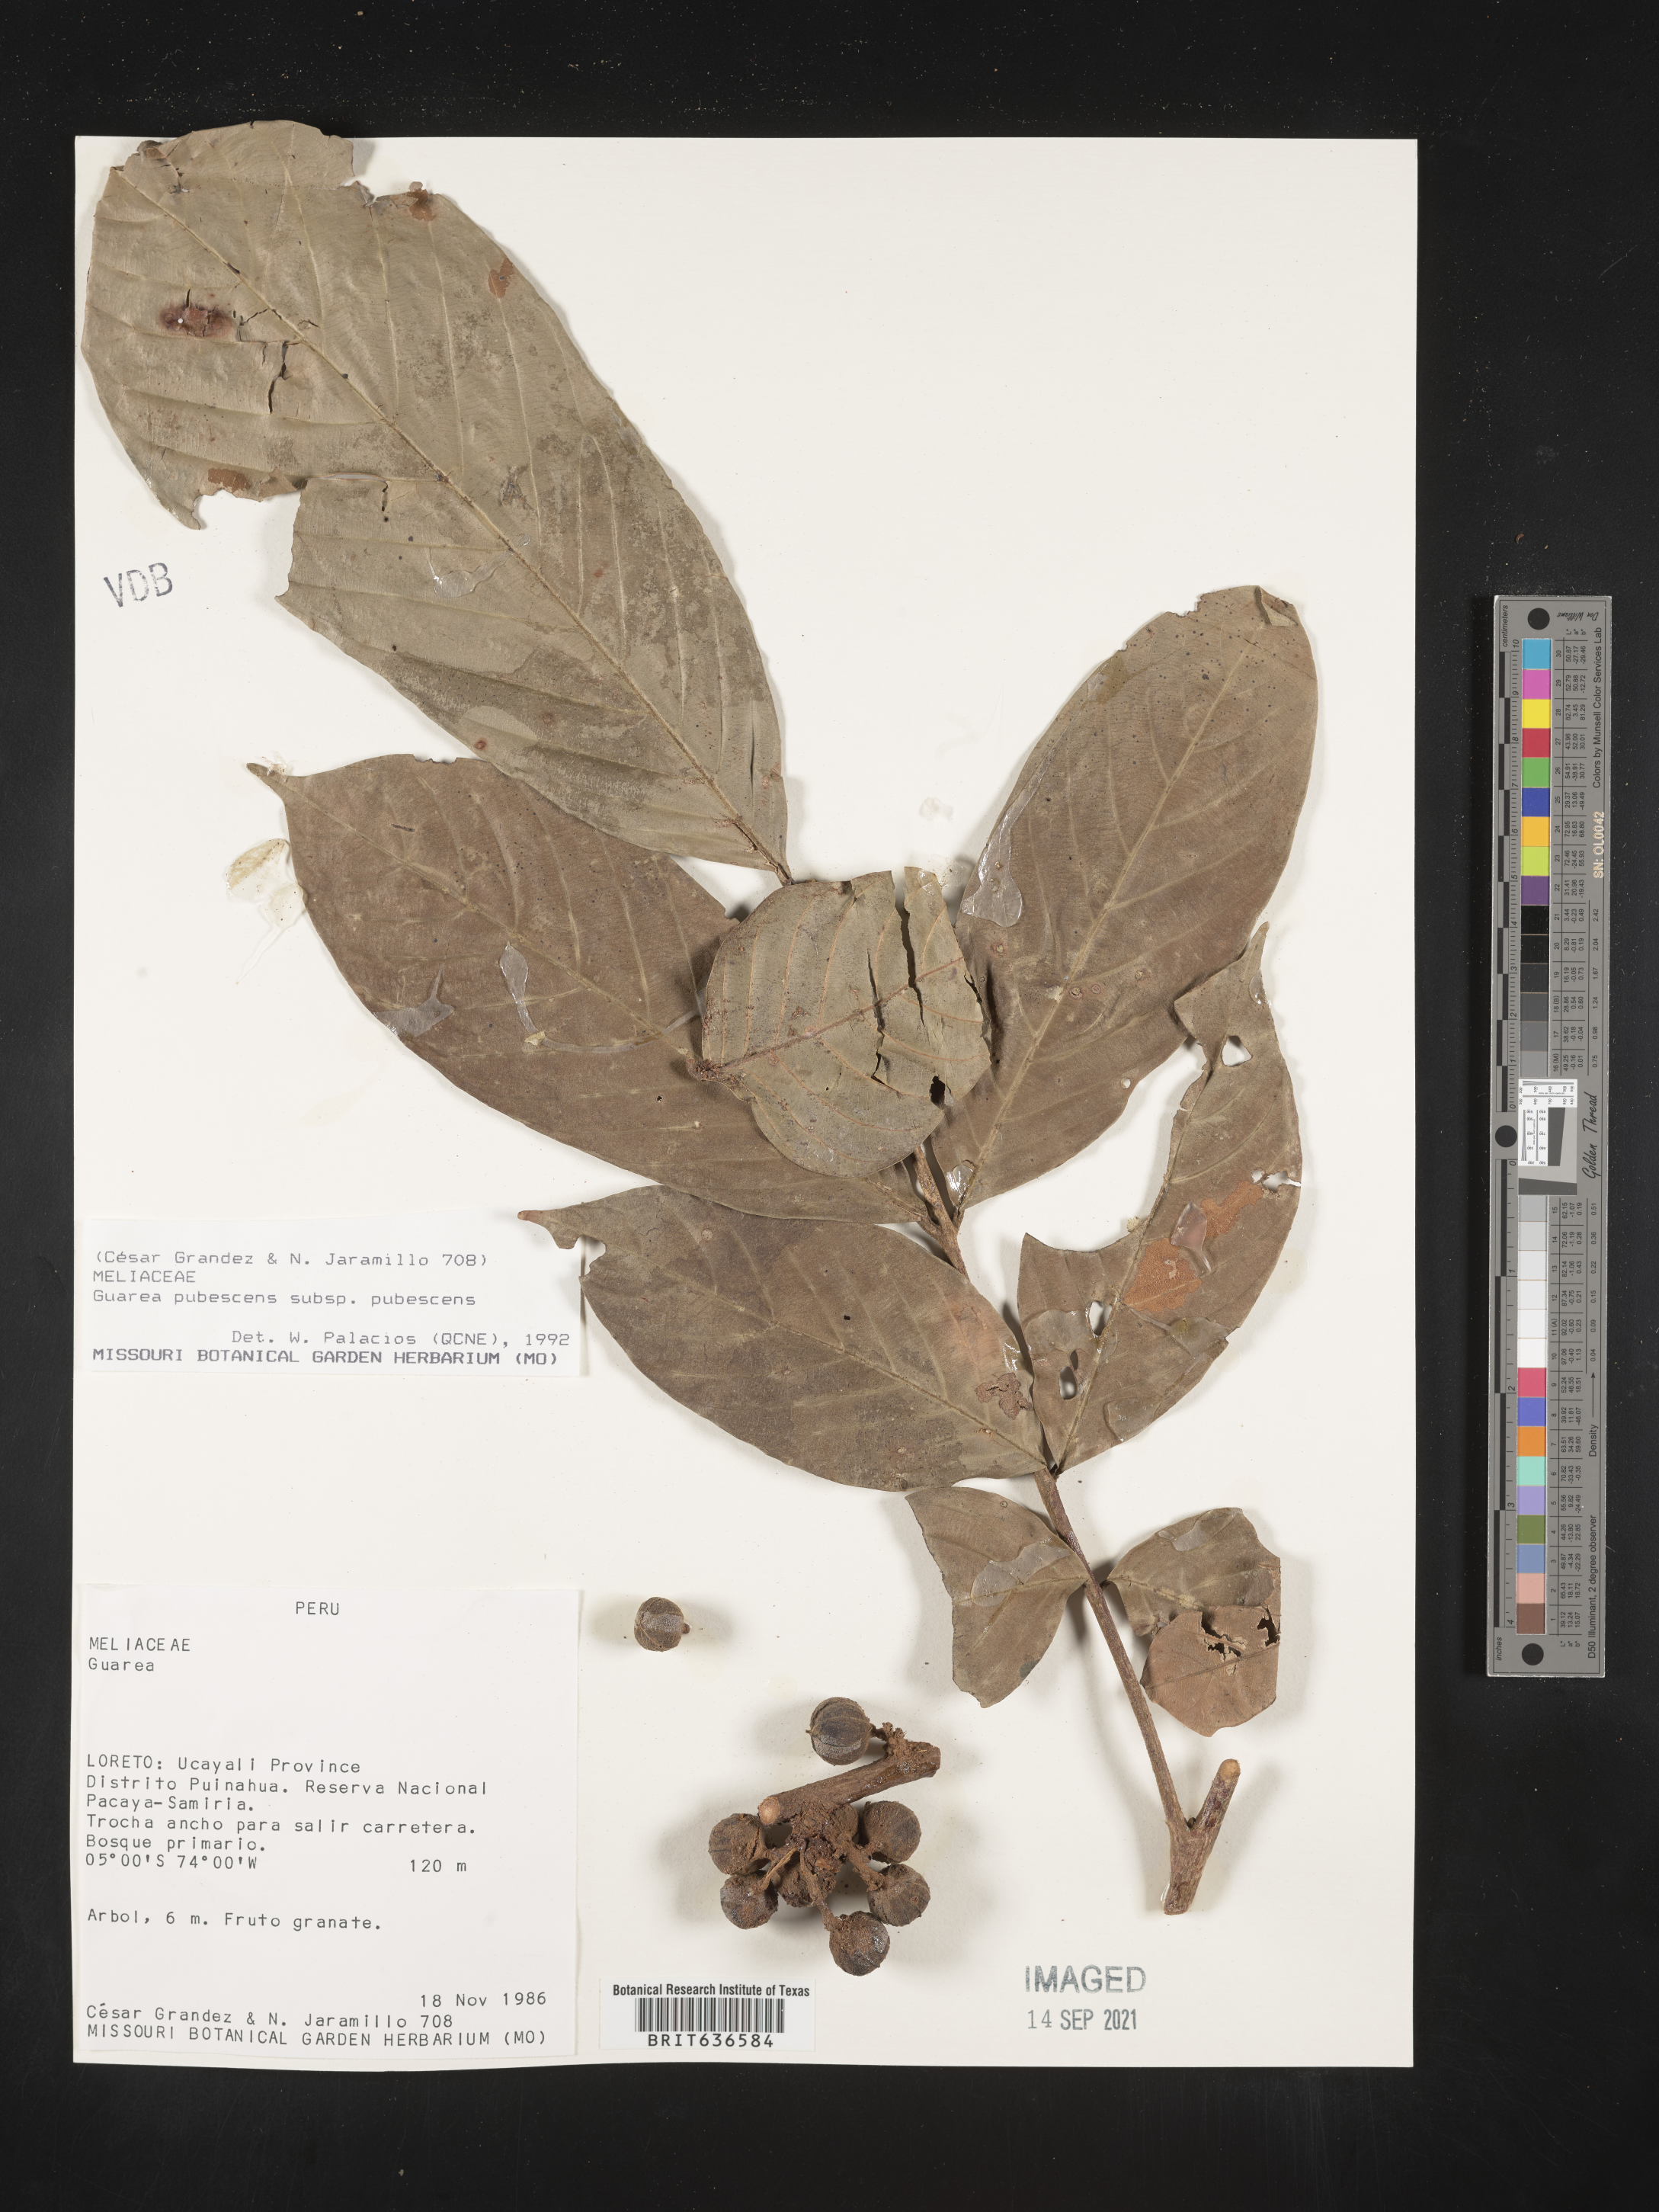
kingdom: Plantae
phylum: Tracheophyta
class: Magnoliopsida
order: Sapindales
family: Meliaceae
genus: Guarea
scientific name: Guarea
